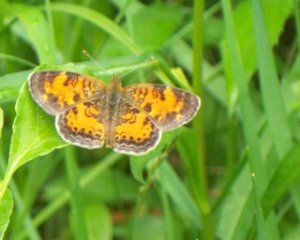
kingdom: Animalia
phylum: Arthropoda
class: Insecta
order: Lepidoptera
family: Nymphalidae
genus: Phyciodes
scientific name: Phyciodes tharos
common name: Pearl Crescent
